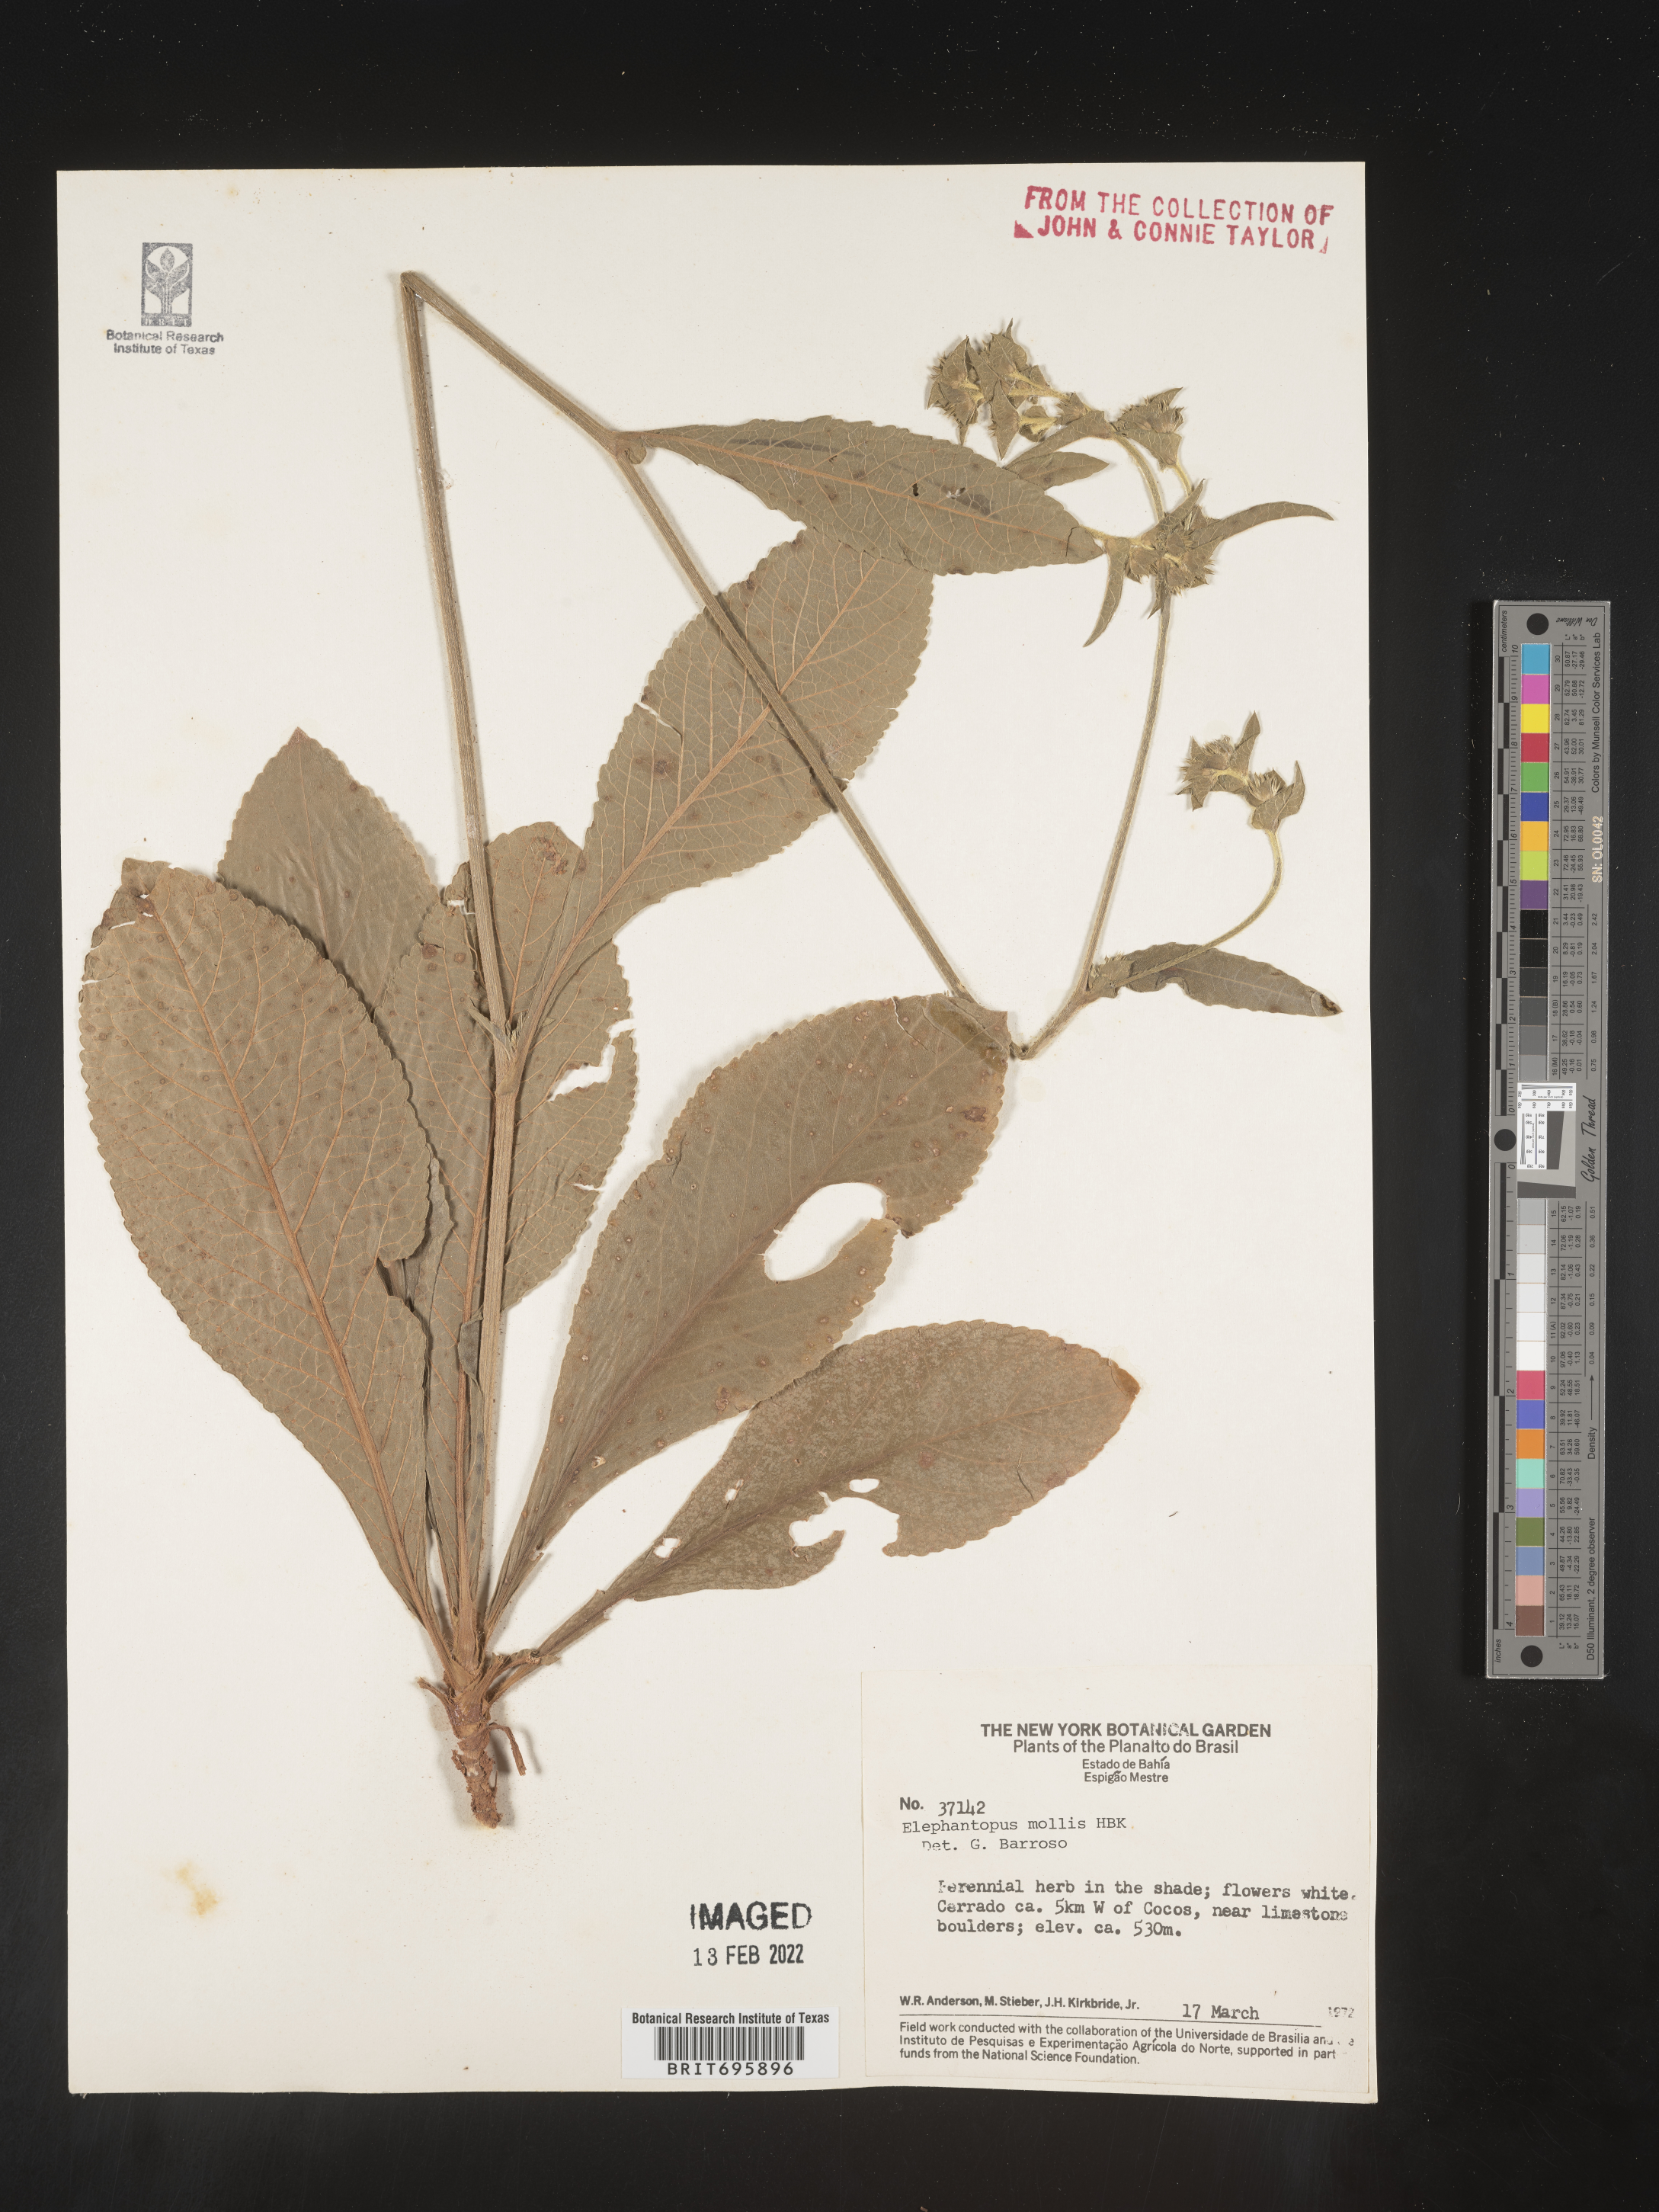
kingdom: Plantae
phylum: Tracheophyta
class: Magnoliopsida
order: Asterales
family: Asteraceae
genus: Elephantopus
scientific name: Elephantopus
